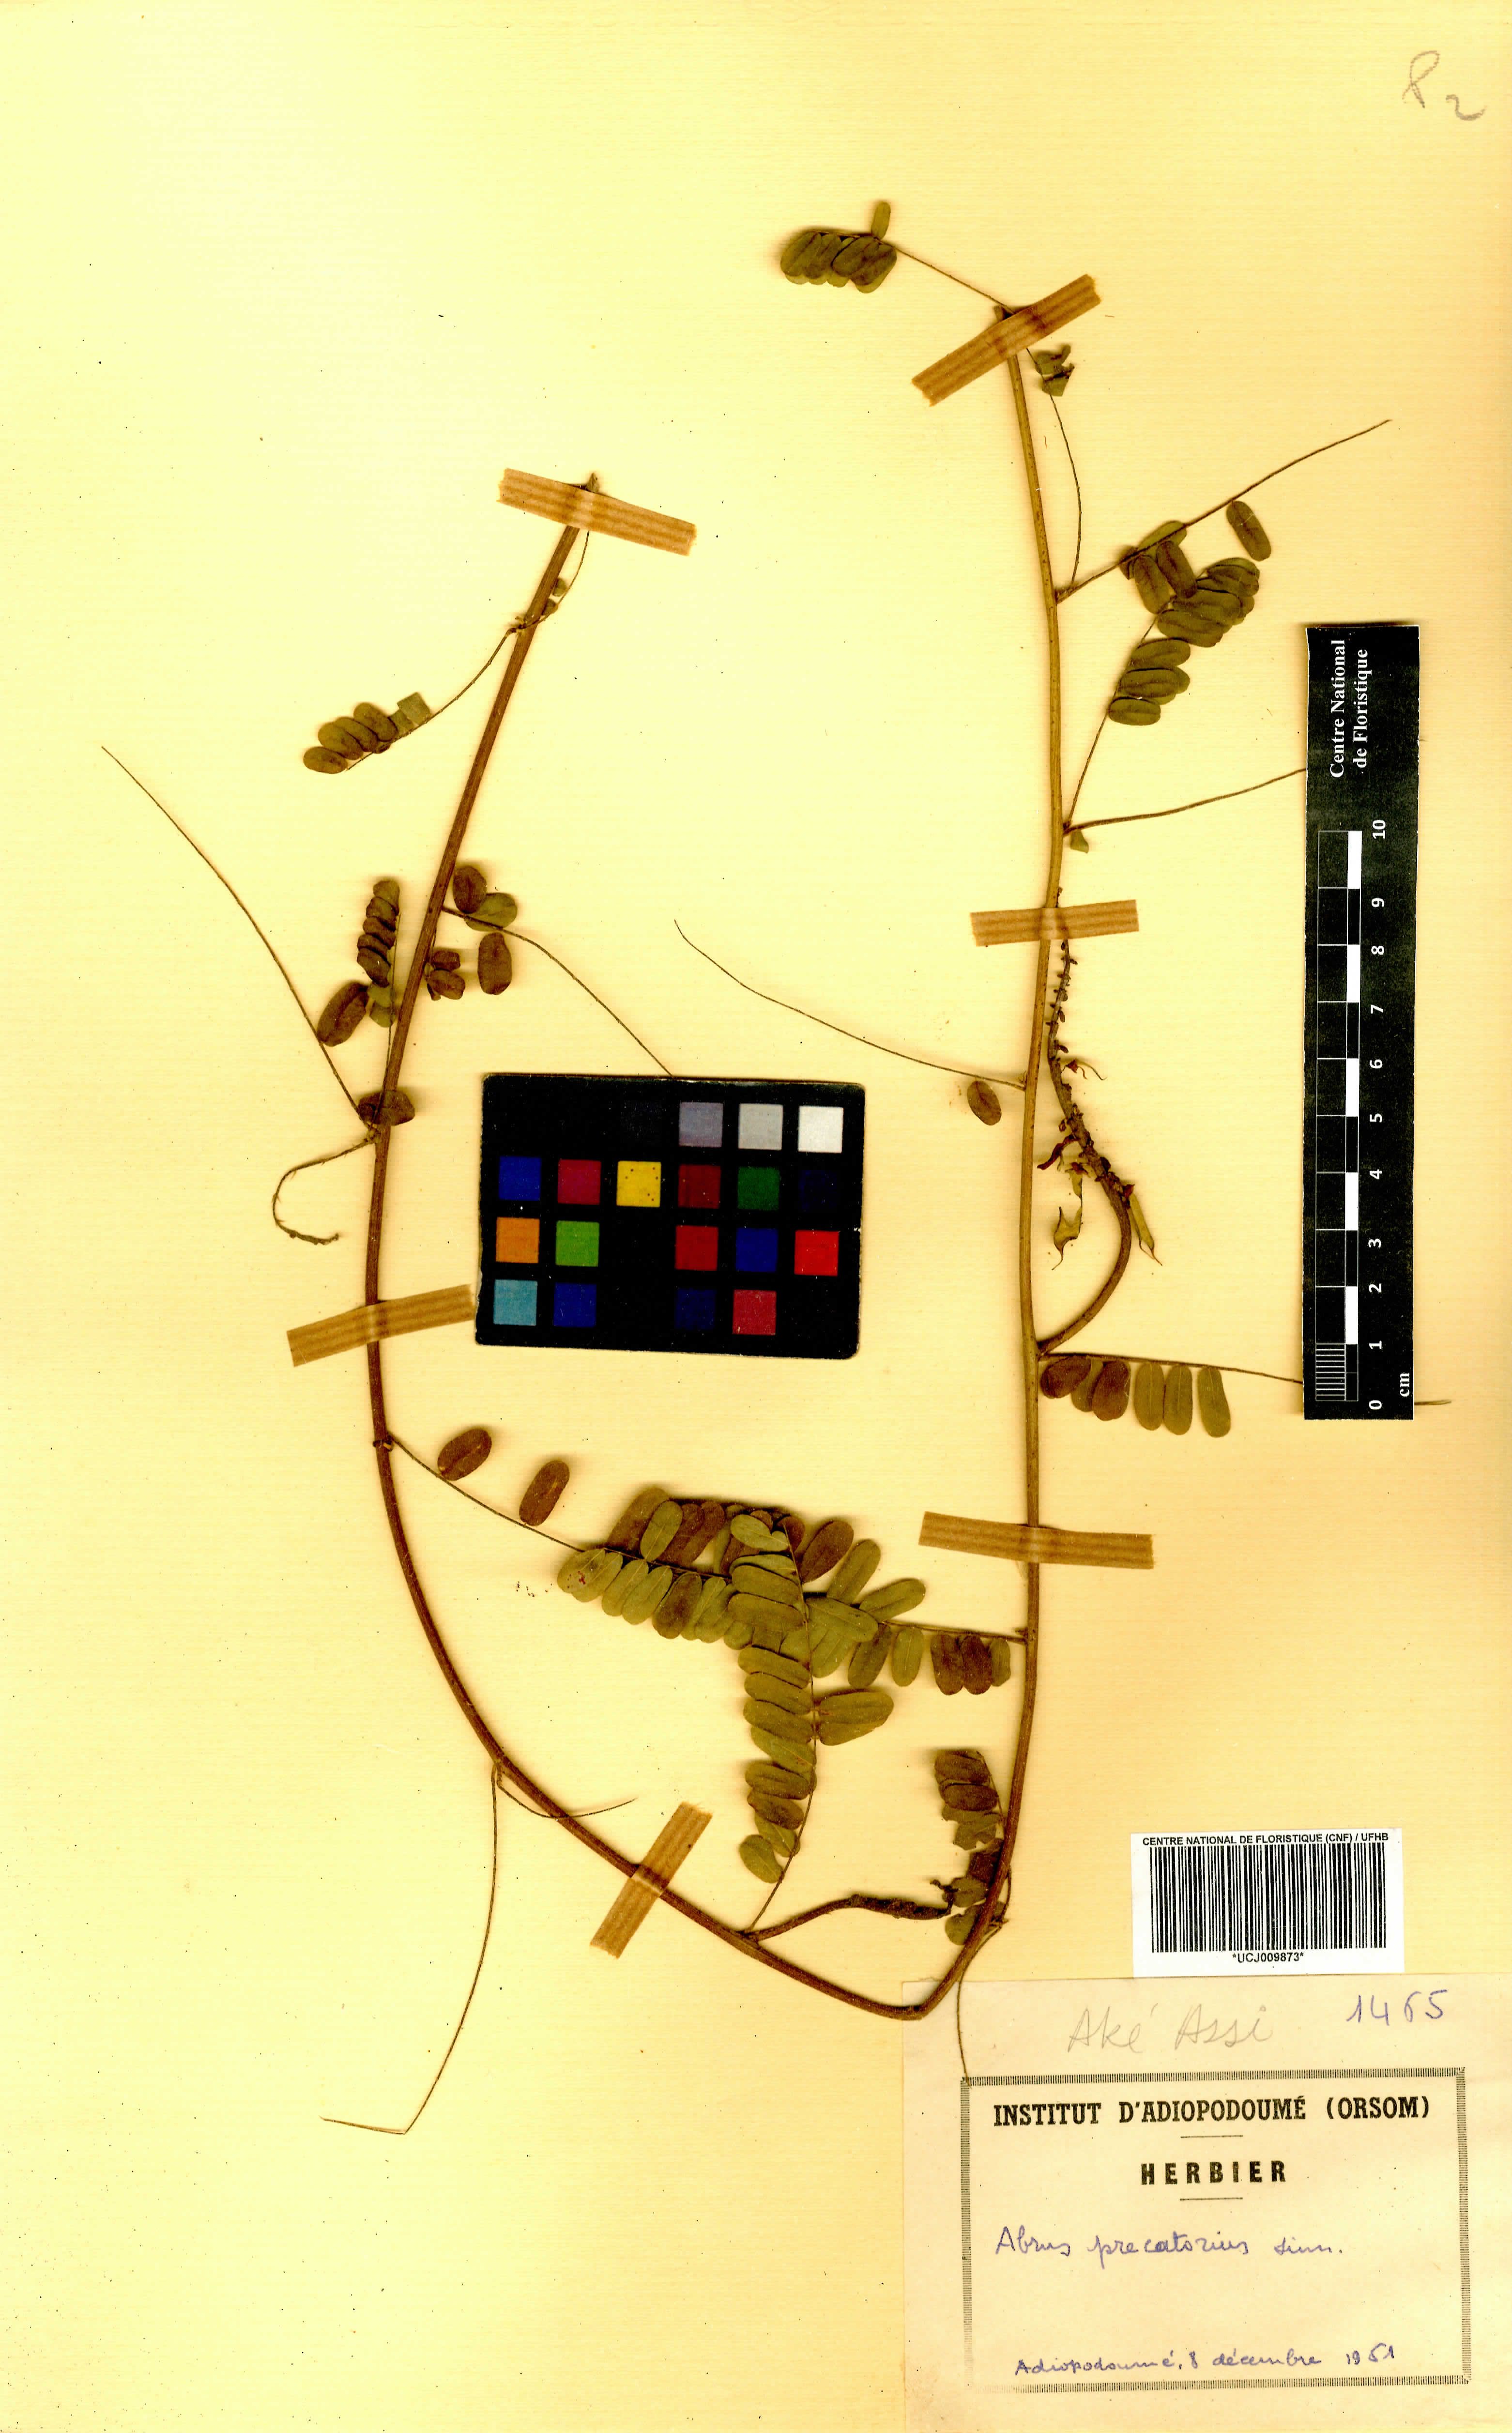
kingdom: Plantae
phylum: Tracheophyta
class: Magnoliopsida
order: Fabales
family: Fabaceae
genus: Abrus
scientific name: Abrus precatorius
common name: Rosarypea
